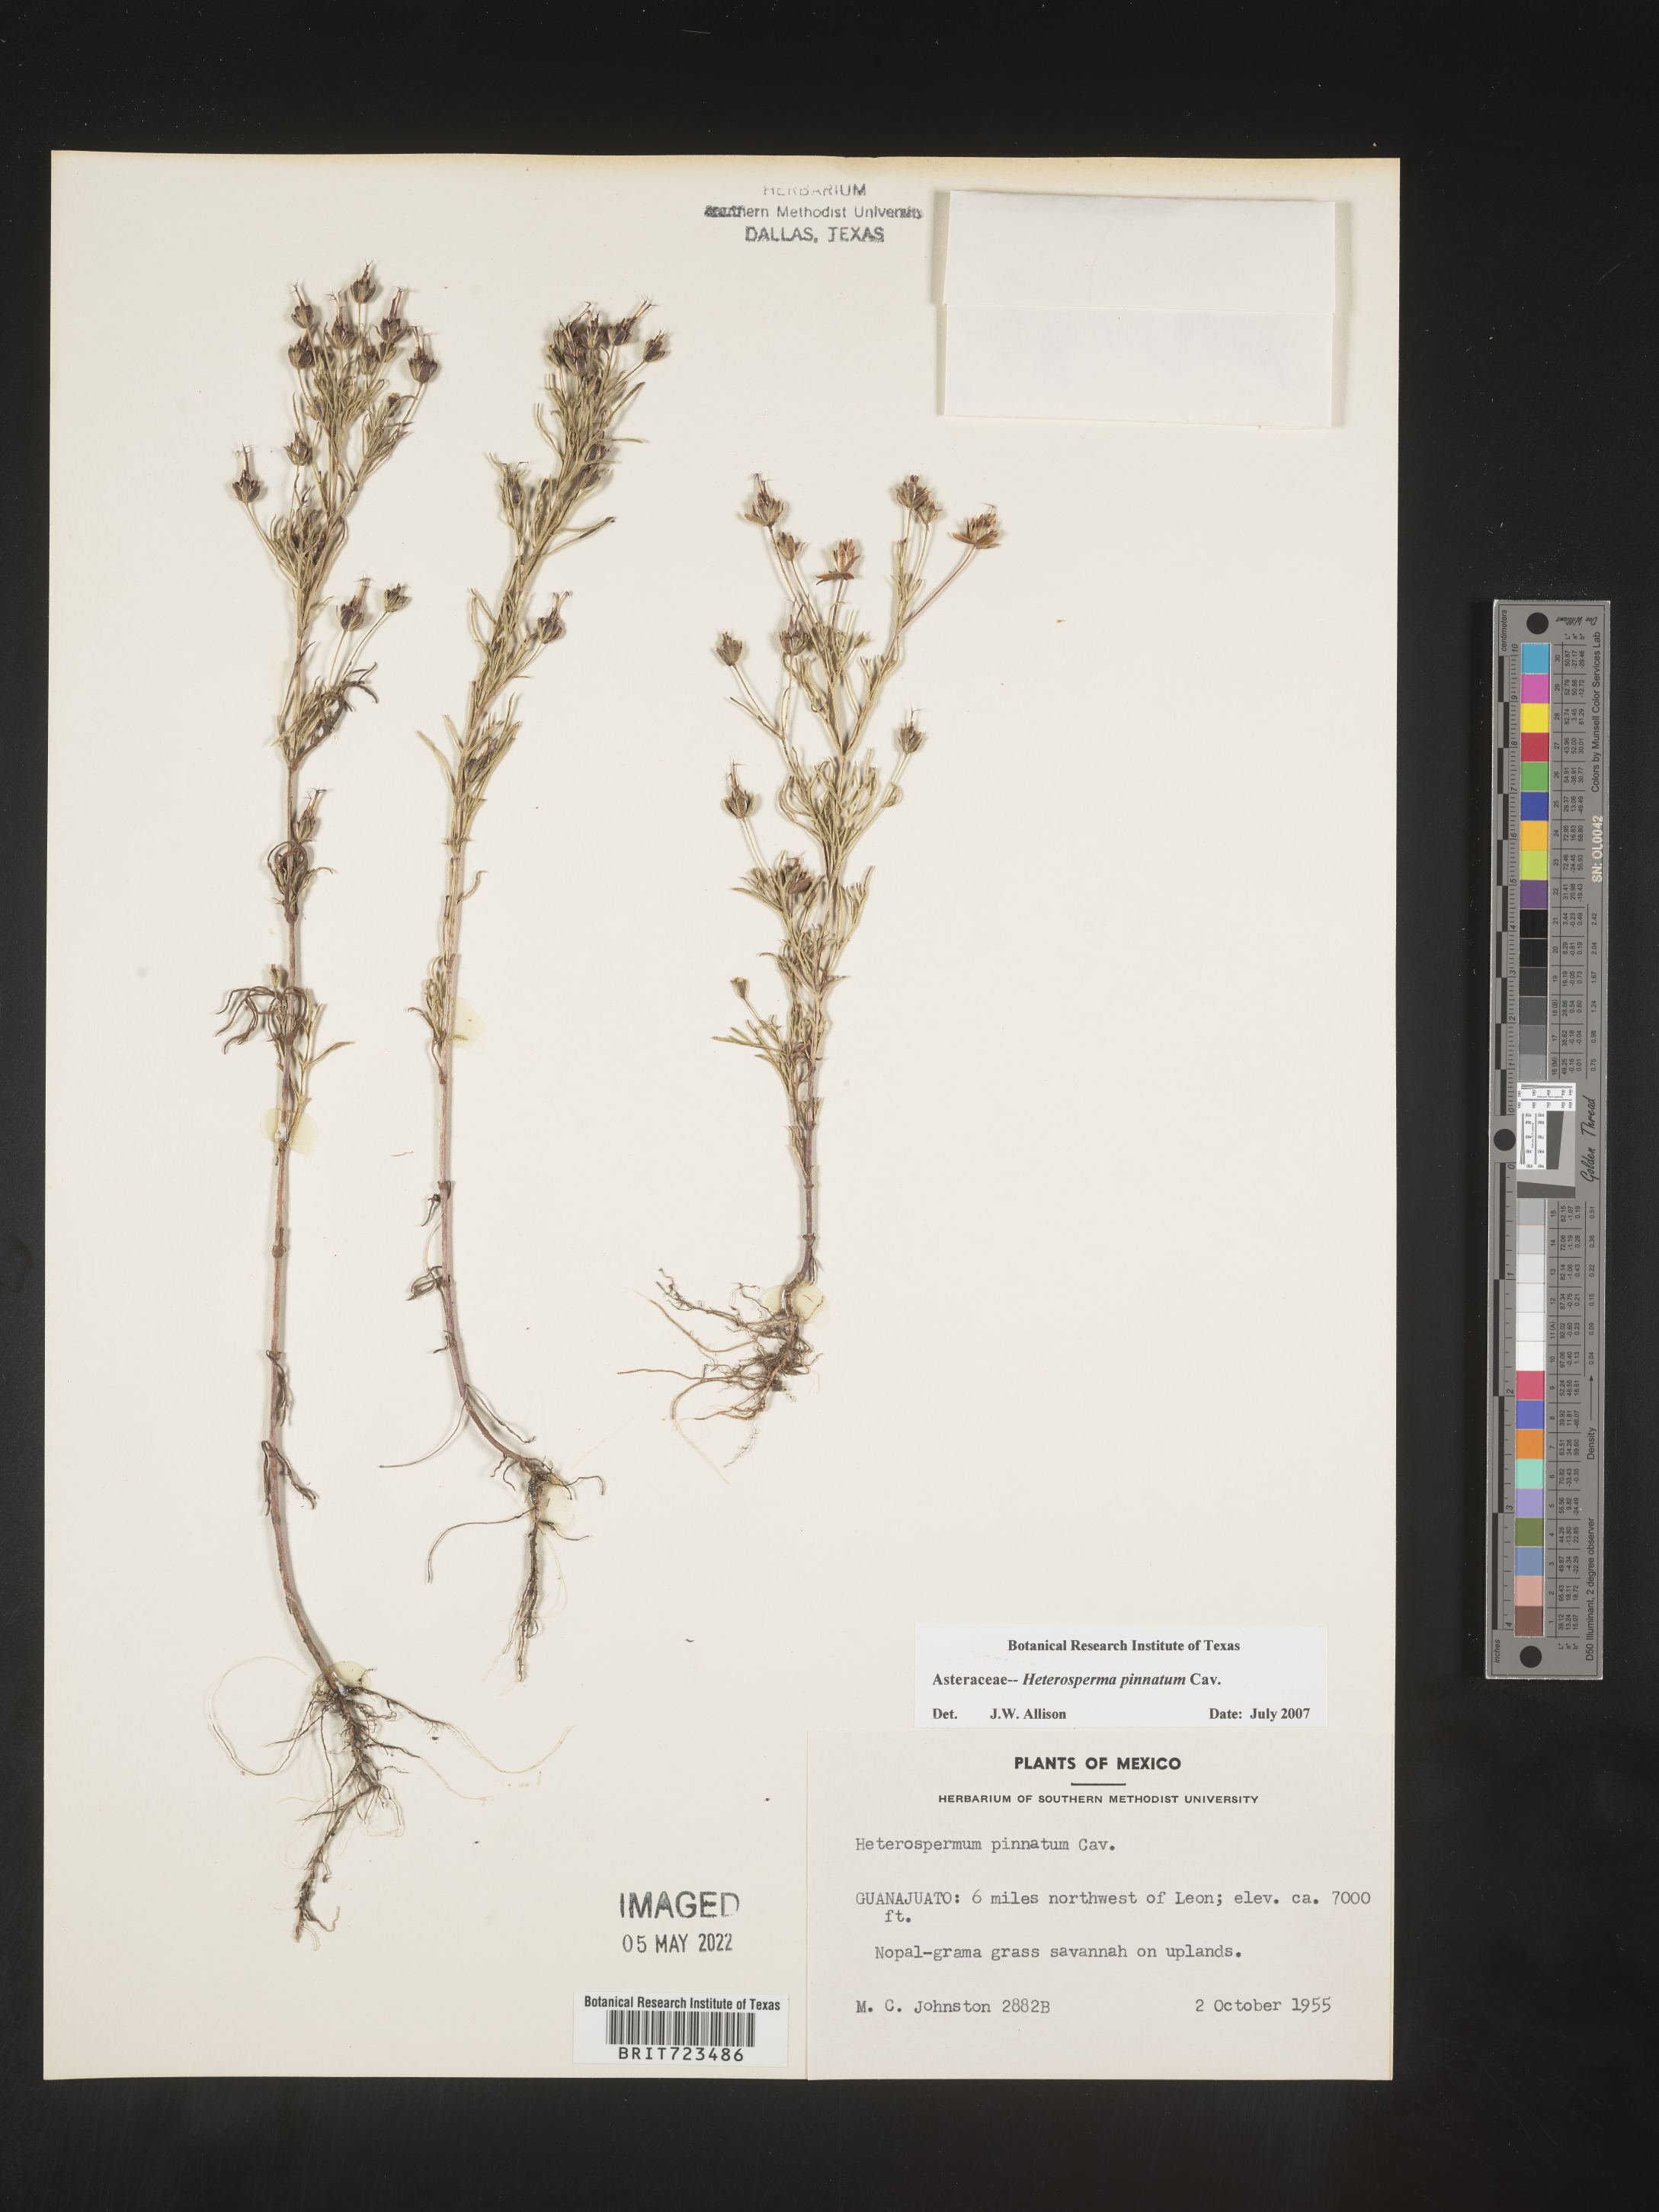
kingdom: Plantae
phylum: Tracheophyta
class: Magnoliopsida
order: Asterales
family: Asteraceae
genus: Heterosperma
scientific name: Heterosperma
